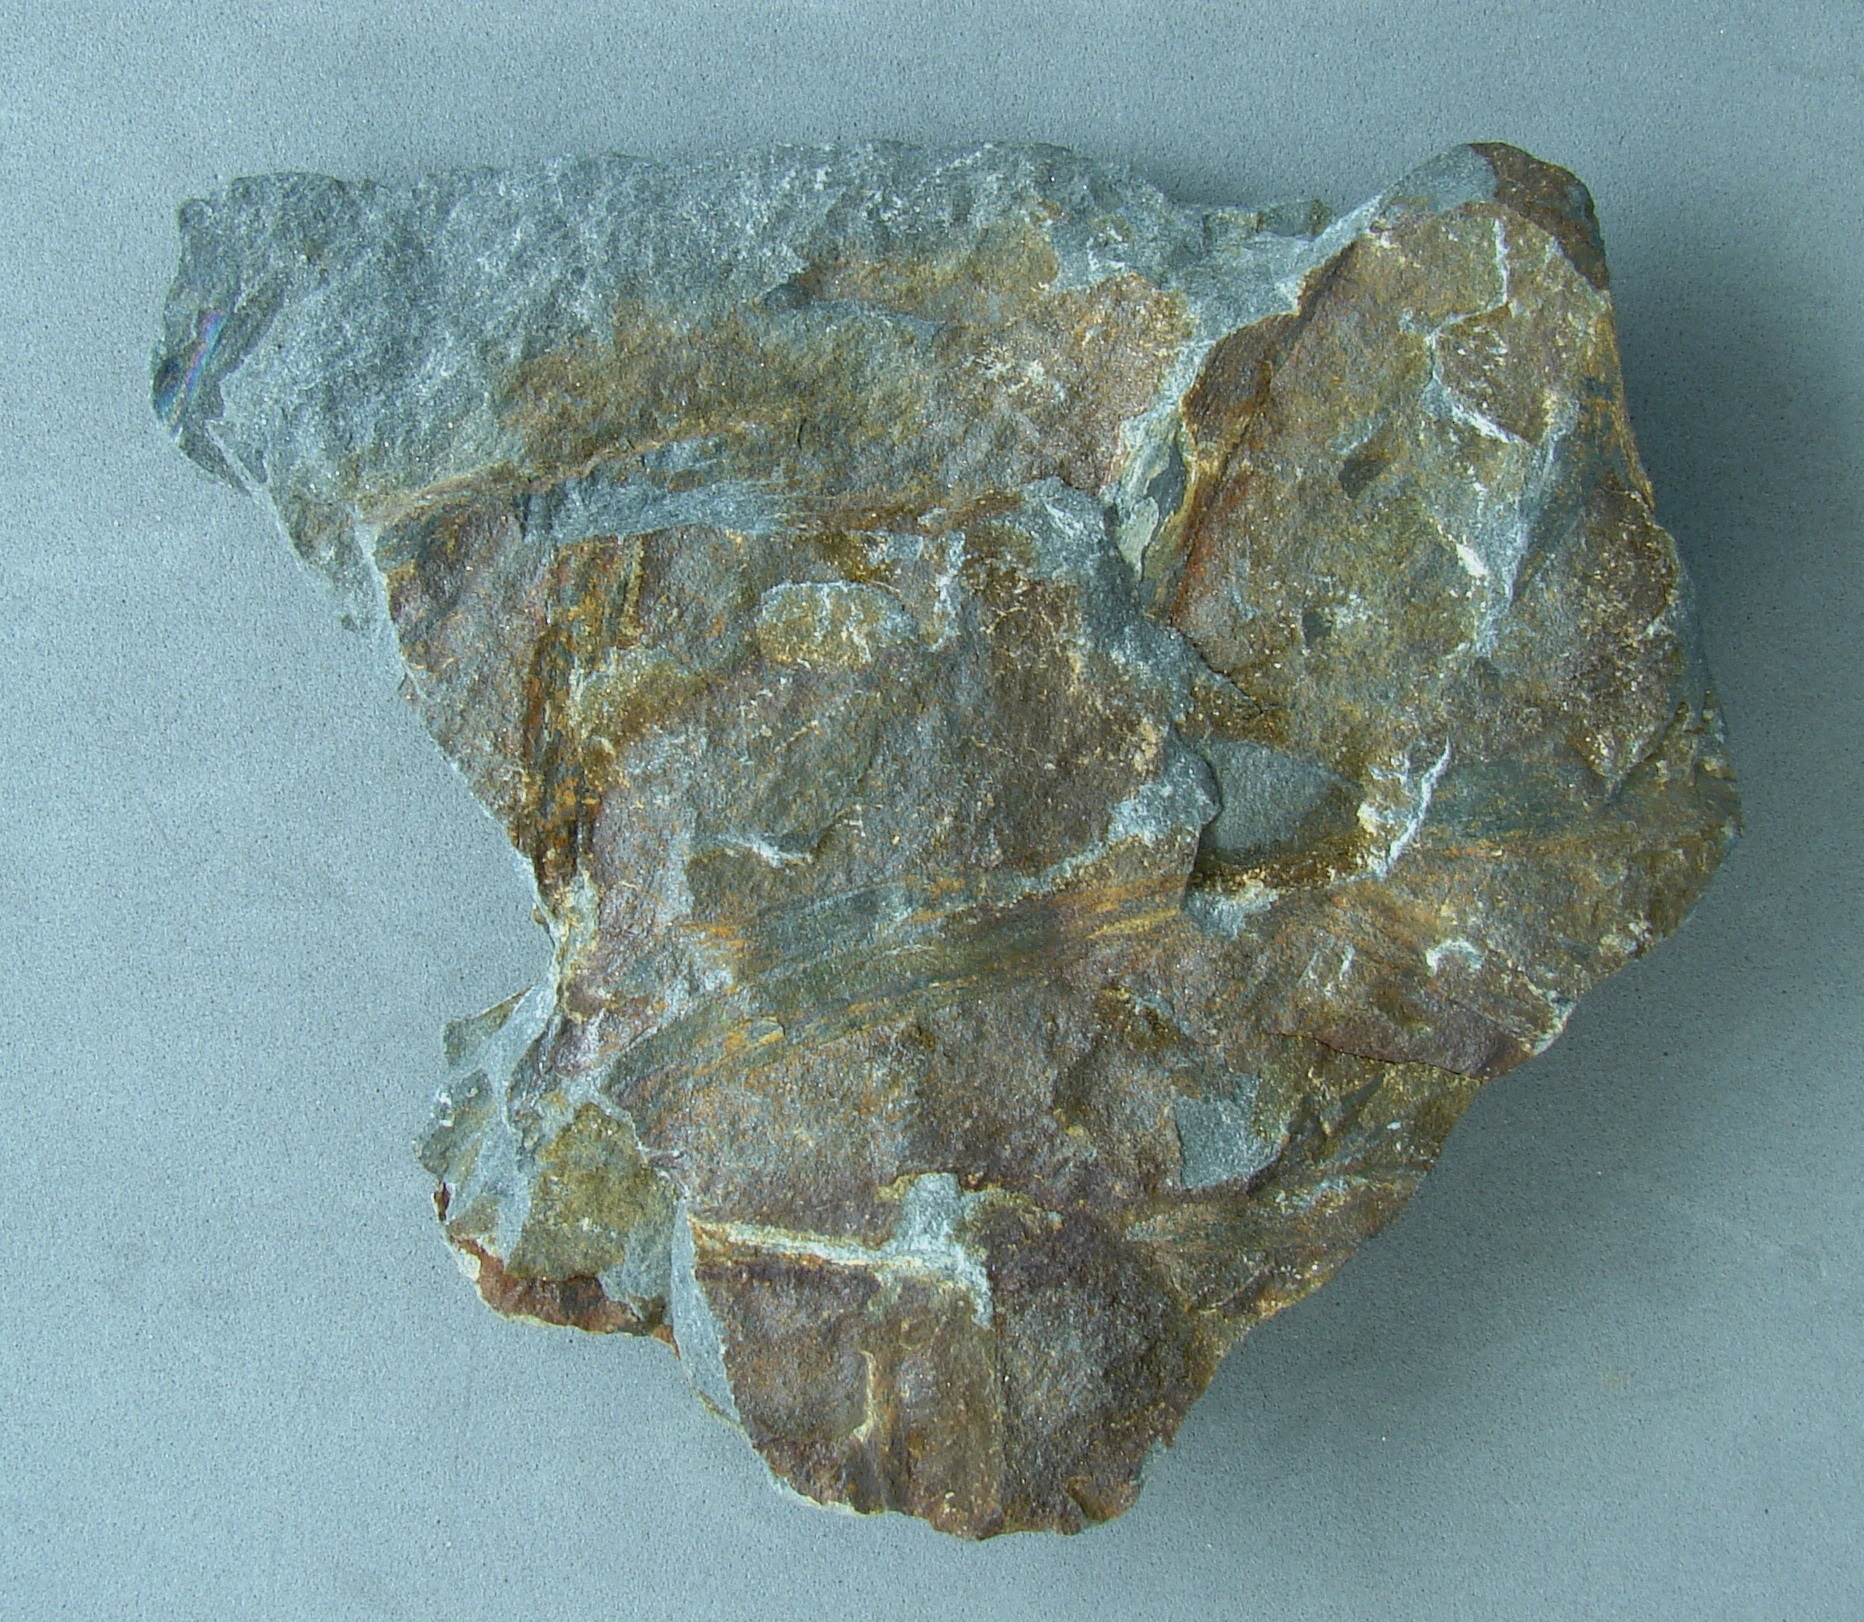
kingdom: Plantae
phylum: Tracheophyta
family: Trimerophytaceae
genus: Psilophyton
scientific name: Psilophyton
